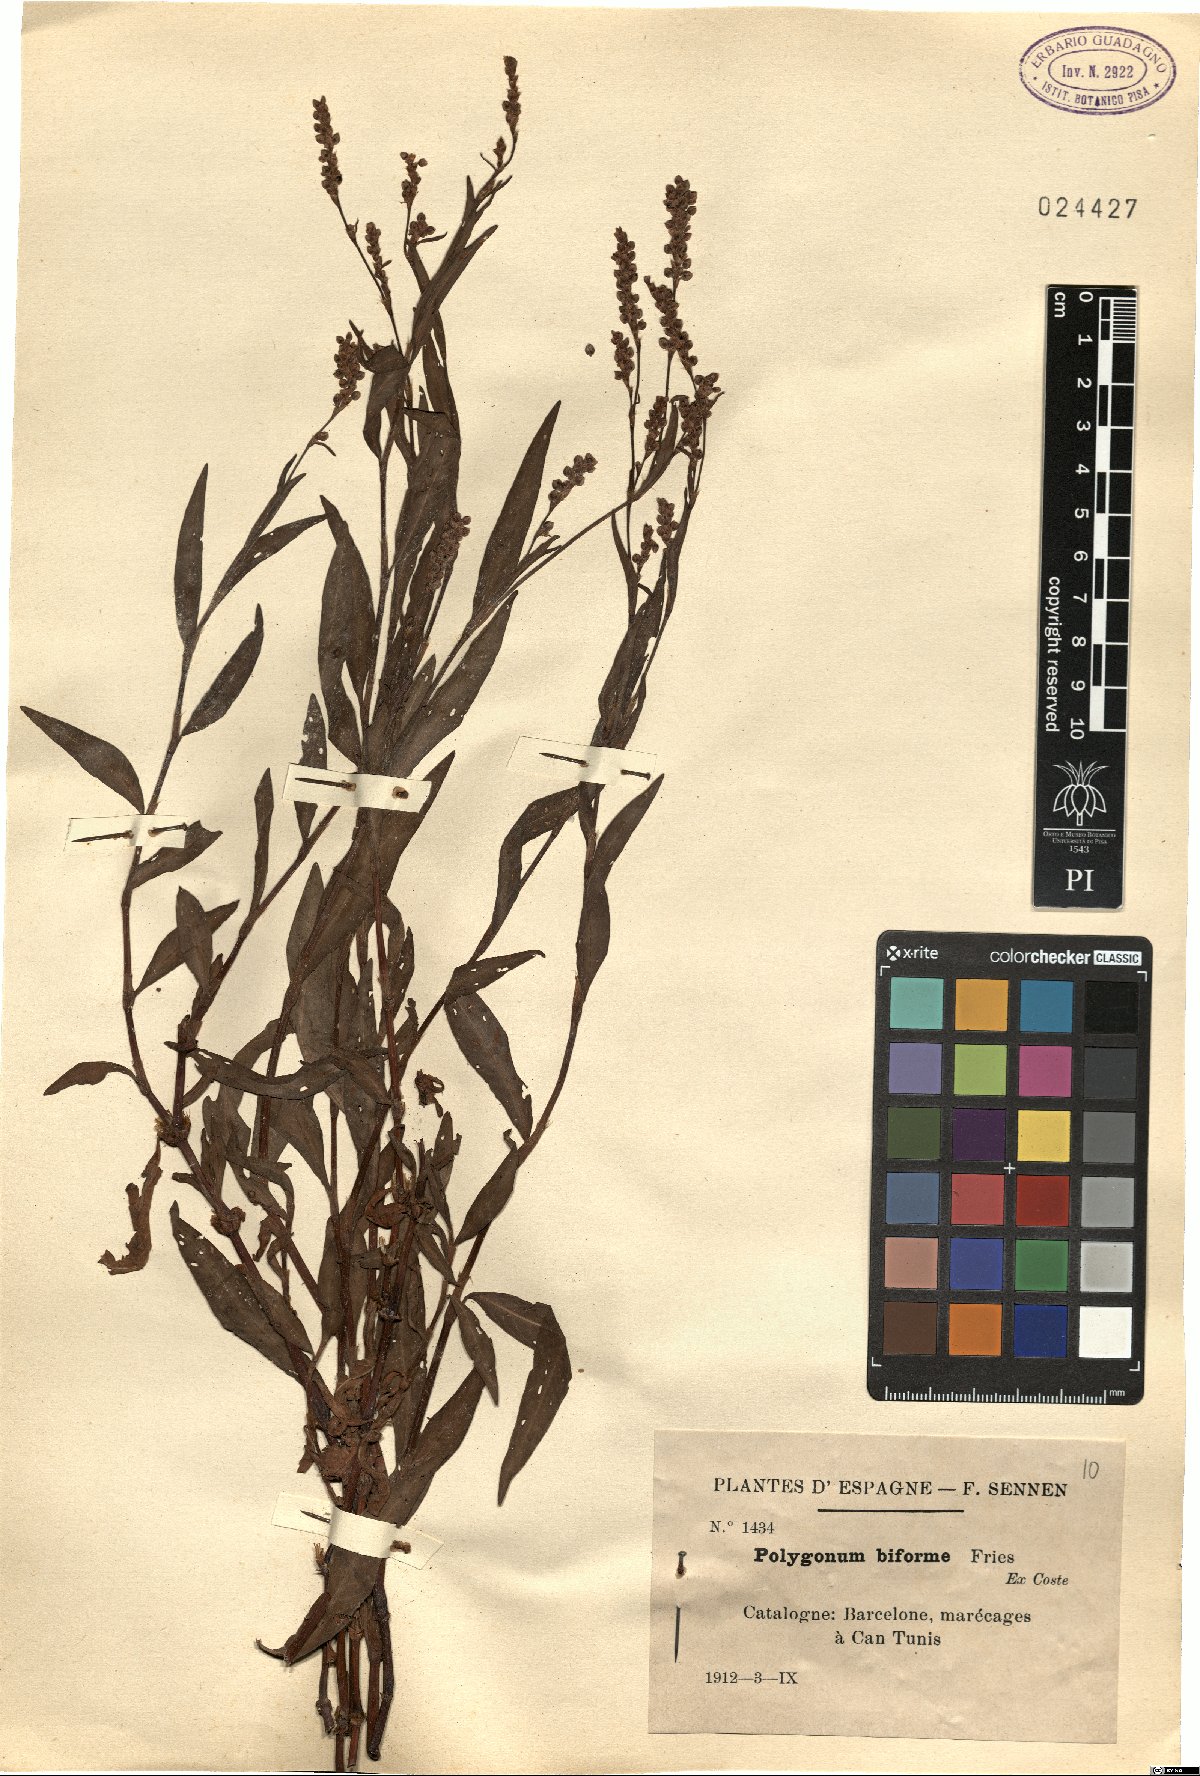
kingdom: Plantae
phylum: Tracheophyta
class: Magnoliopsida
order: Caryophyllales
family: Polygonaceae
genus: Persicaria
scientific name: Persicaria maculosa
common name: Redshank
